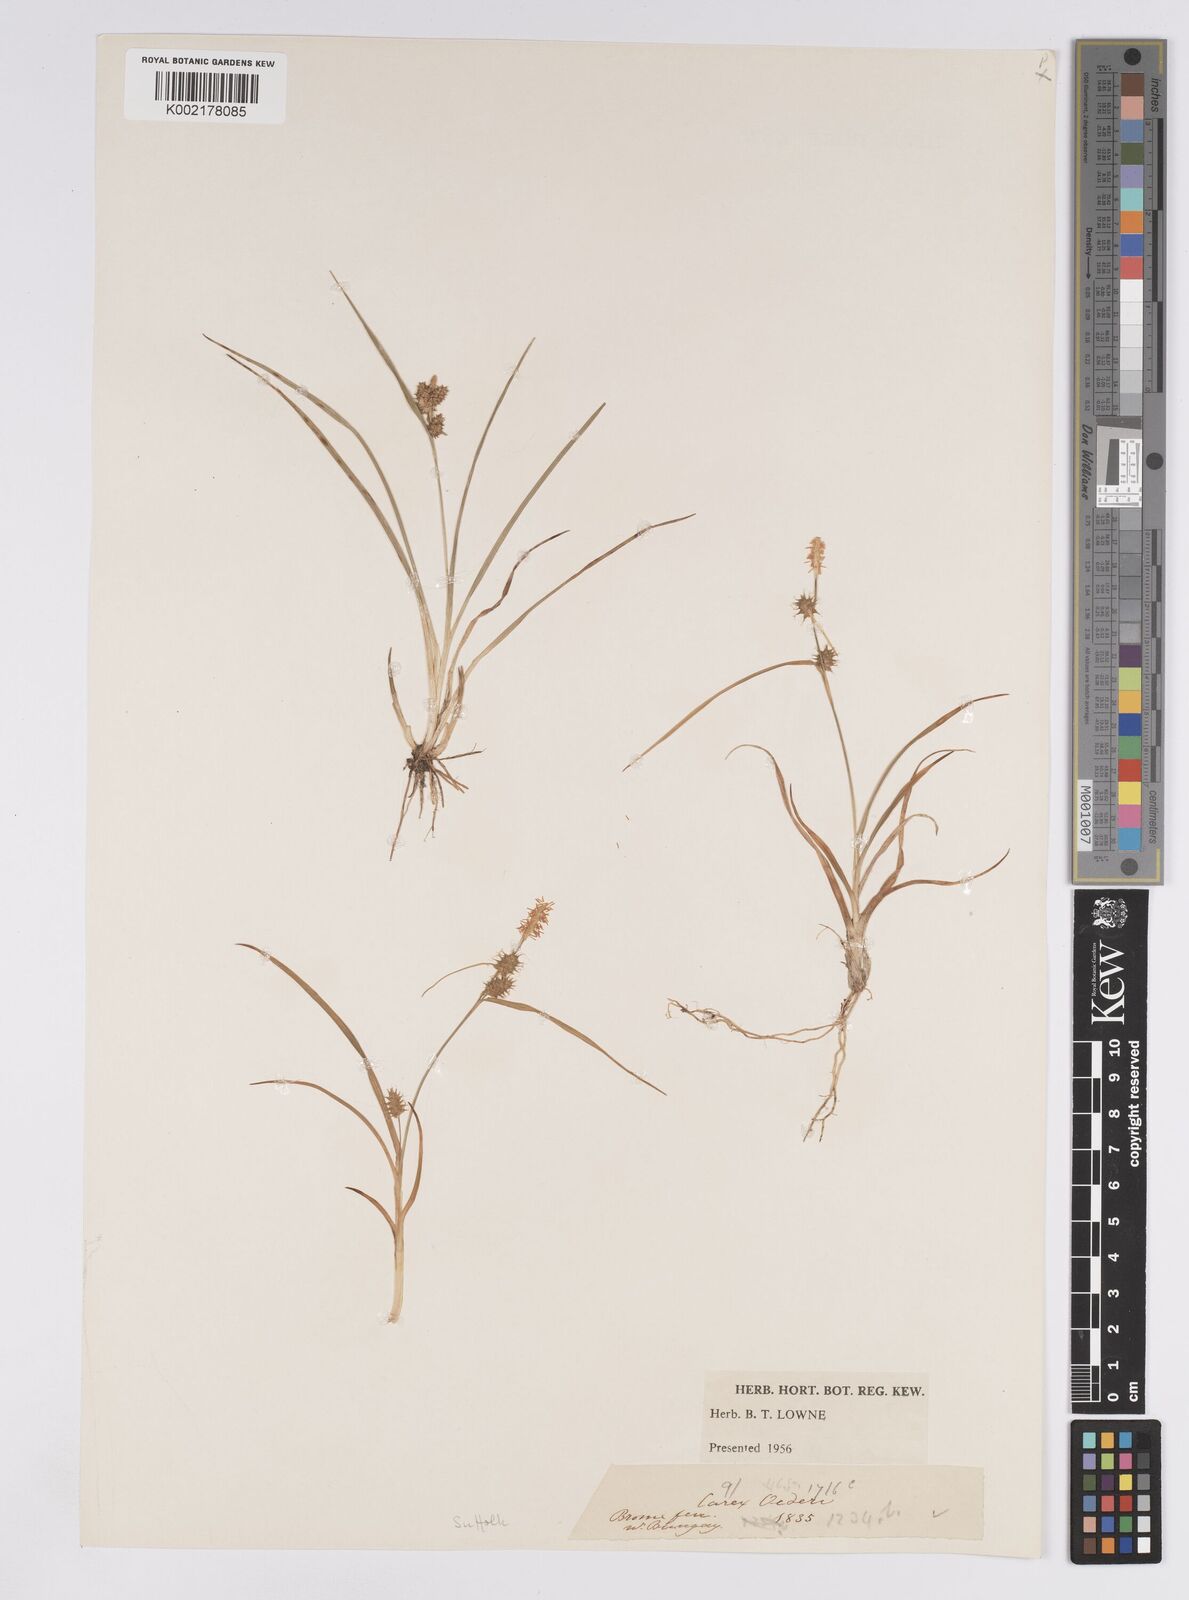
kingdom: Plantae
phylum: Tracheophyta
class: Liliopsida
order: Poales
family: Cyperaceae
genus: Carex
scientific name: Carex demissa
